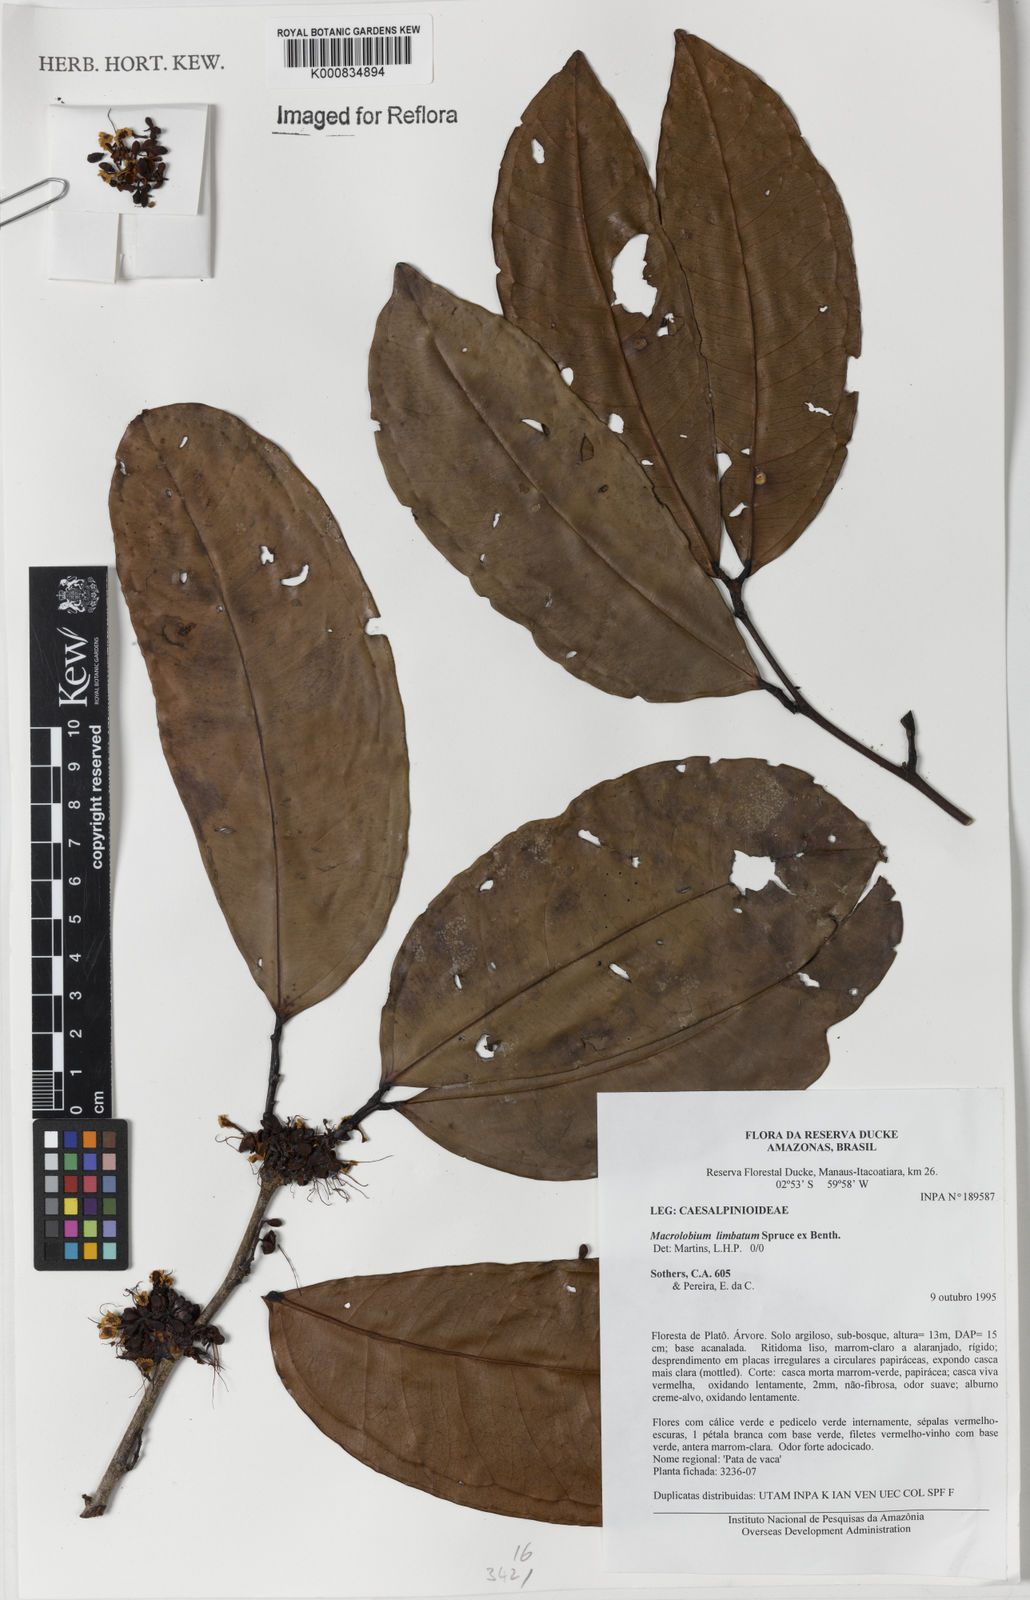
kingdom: Plantae
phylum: Tracheophyta
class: Magnoliopsida
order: Fabales
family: Fabaceae
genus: Macrolobium
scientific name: Macrolobium limbatum
